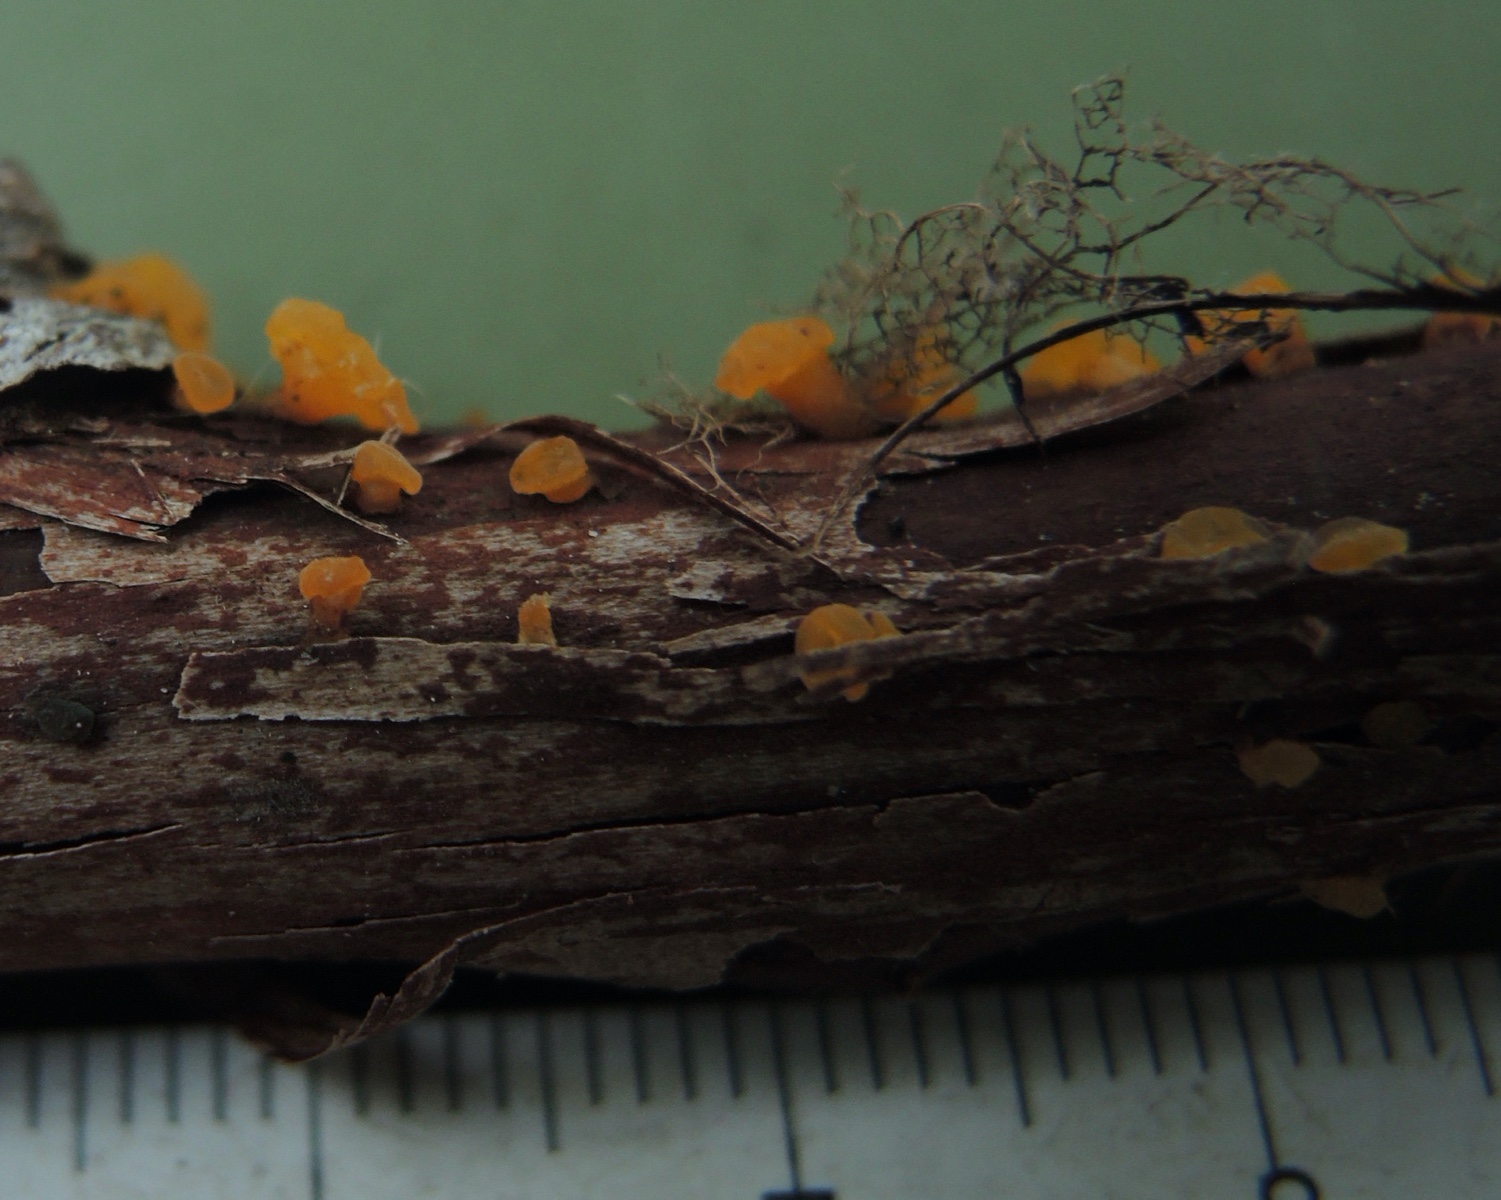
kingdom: Fungi
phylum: Basidiomycota
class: Dacrymycetes
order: Dacrymycetales
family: Dacrymycetaceae
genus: Dacrymyces
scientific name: Dacrymyces capitatus
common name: stilket tåresvamp
